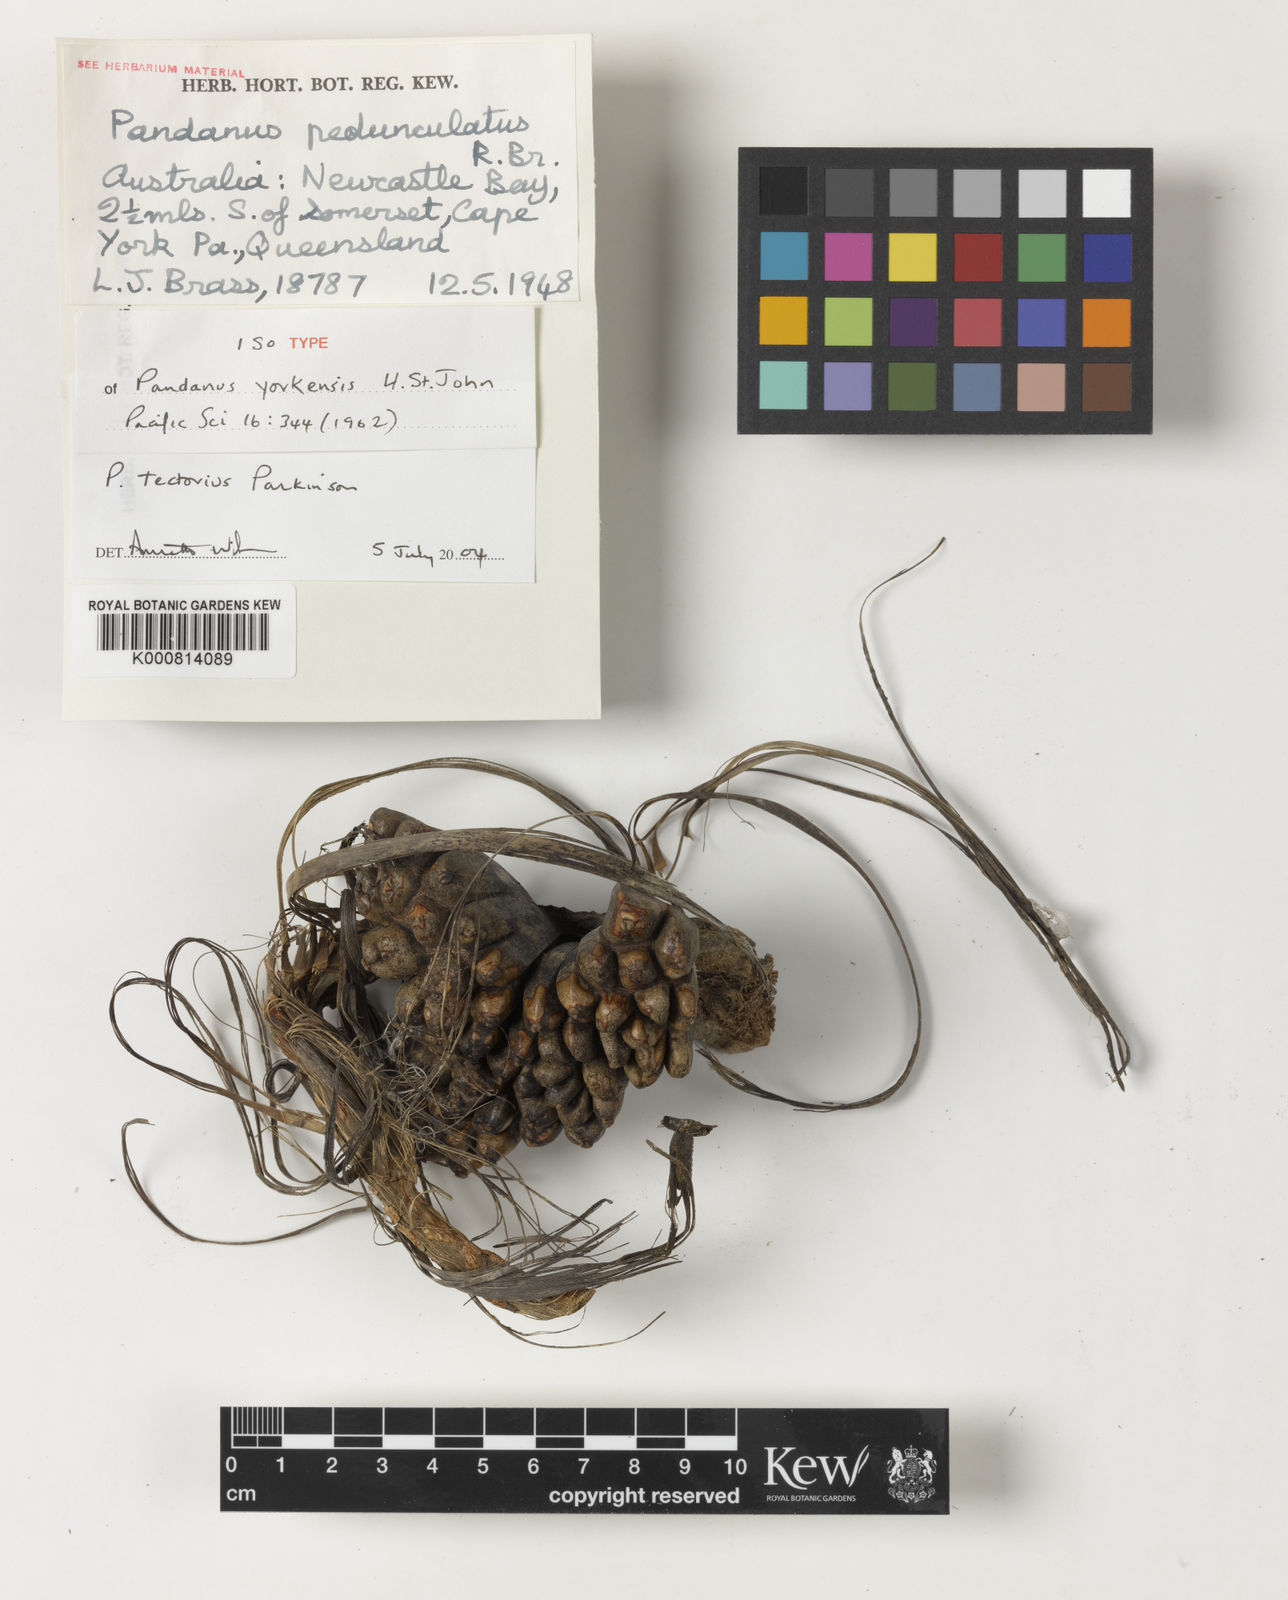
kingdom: Plantae
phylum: Tracheophyta
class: Liliopsida
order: Pandanales
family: Pandanaceae
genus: Pandanus
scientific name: Pandanus
